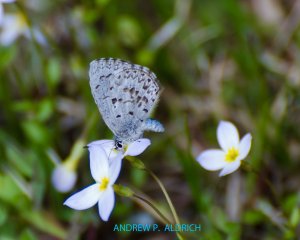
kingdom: Animalia
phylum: Arthropoda
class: Insecta
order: Lepidoptera
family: Lycaenidae
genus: Celastrina
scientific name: Celastrina lucia
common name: Northern Spring Azure
